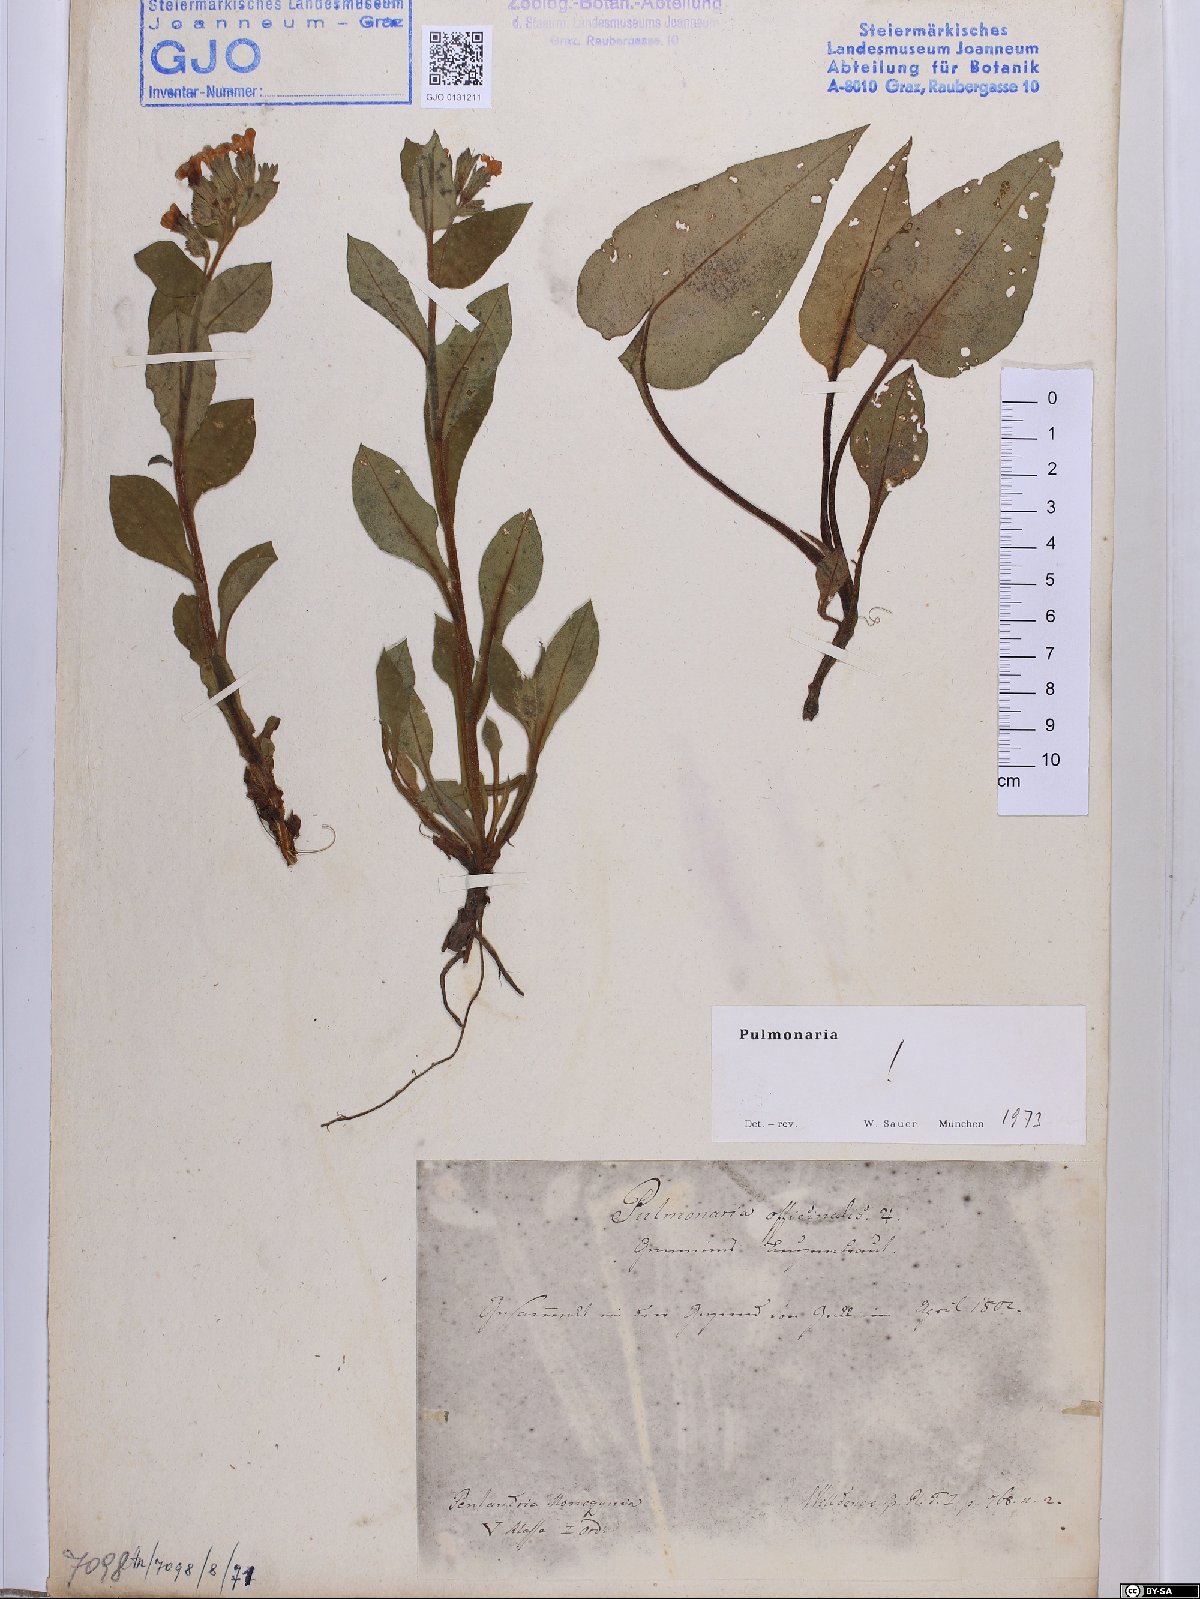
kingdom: Plantae
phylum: Tracheophyta
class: Magnoliopsida
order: Boraginales
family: Boraginaceae
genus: Pulmonaria
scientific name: Pulmonaria officinalis
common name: Lungwort
